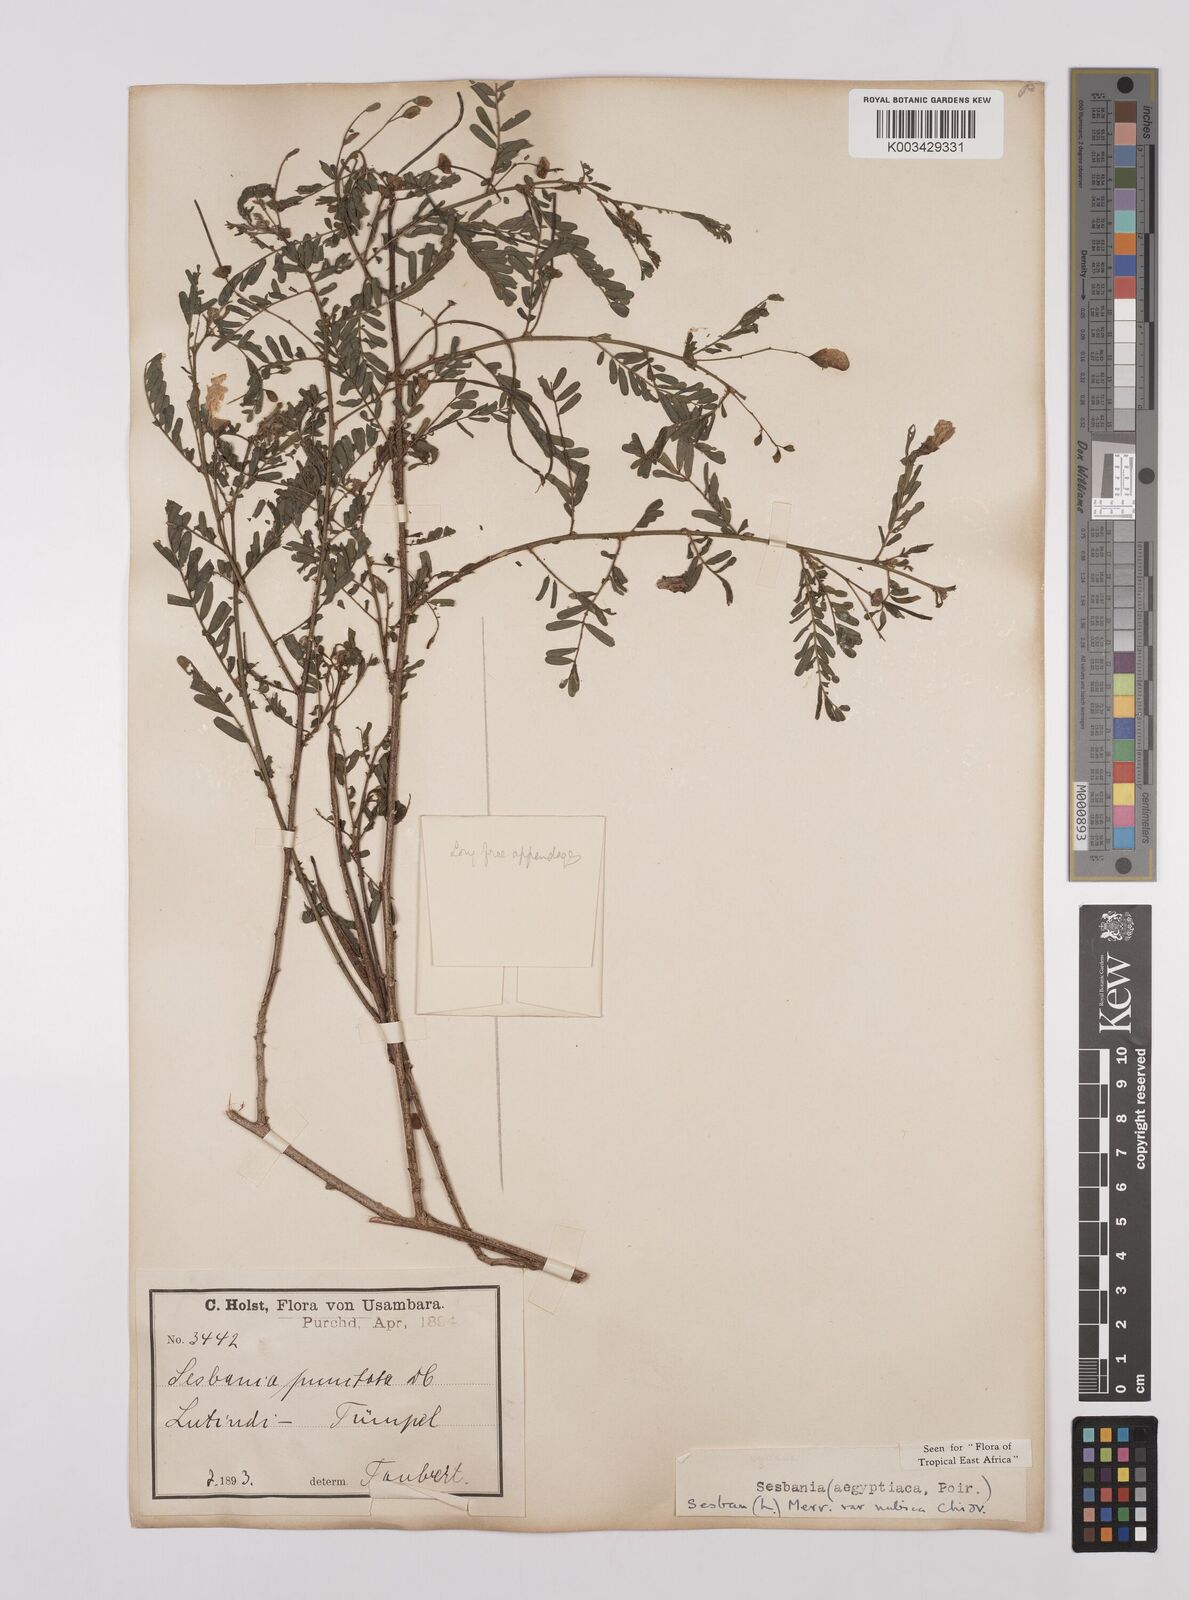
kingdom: Plantae
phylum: Tracheophyta
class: Magnoliopsida
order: Fabales
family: Fabaceae
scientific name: Fabaceae
